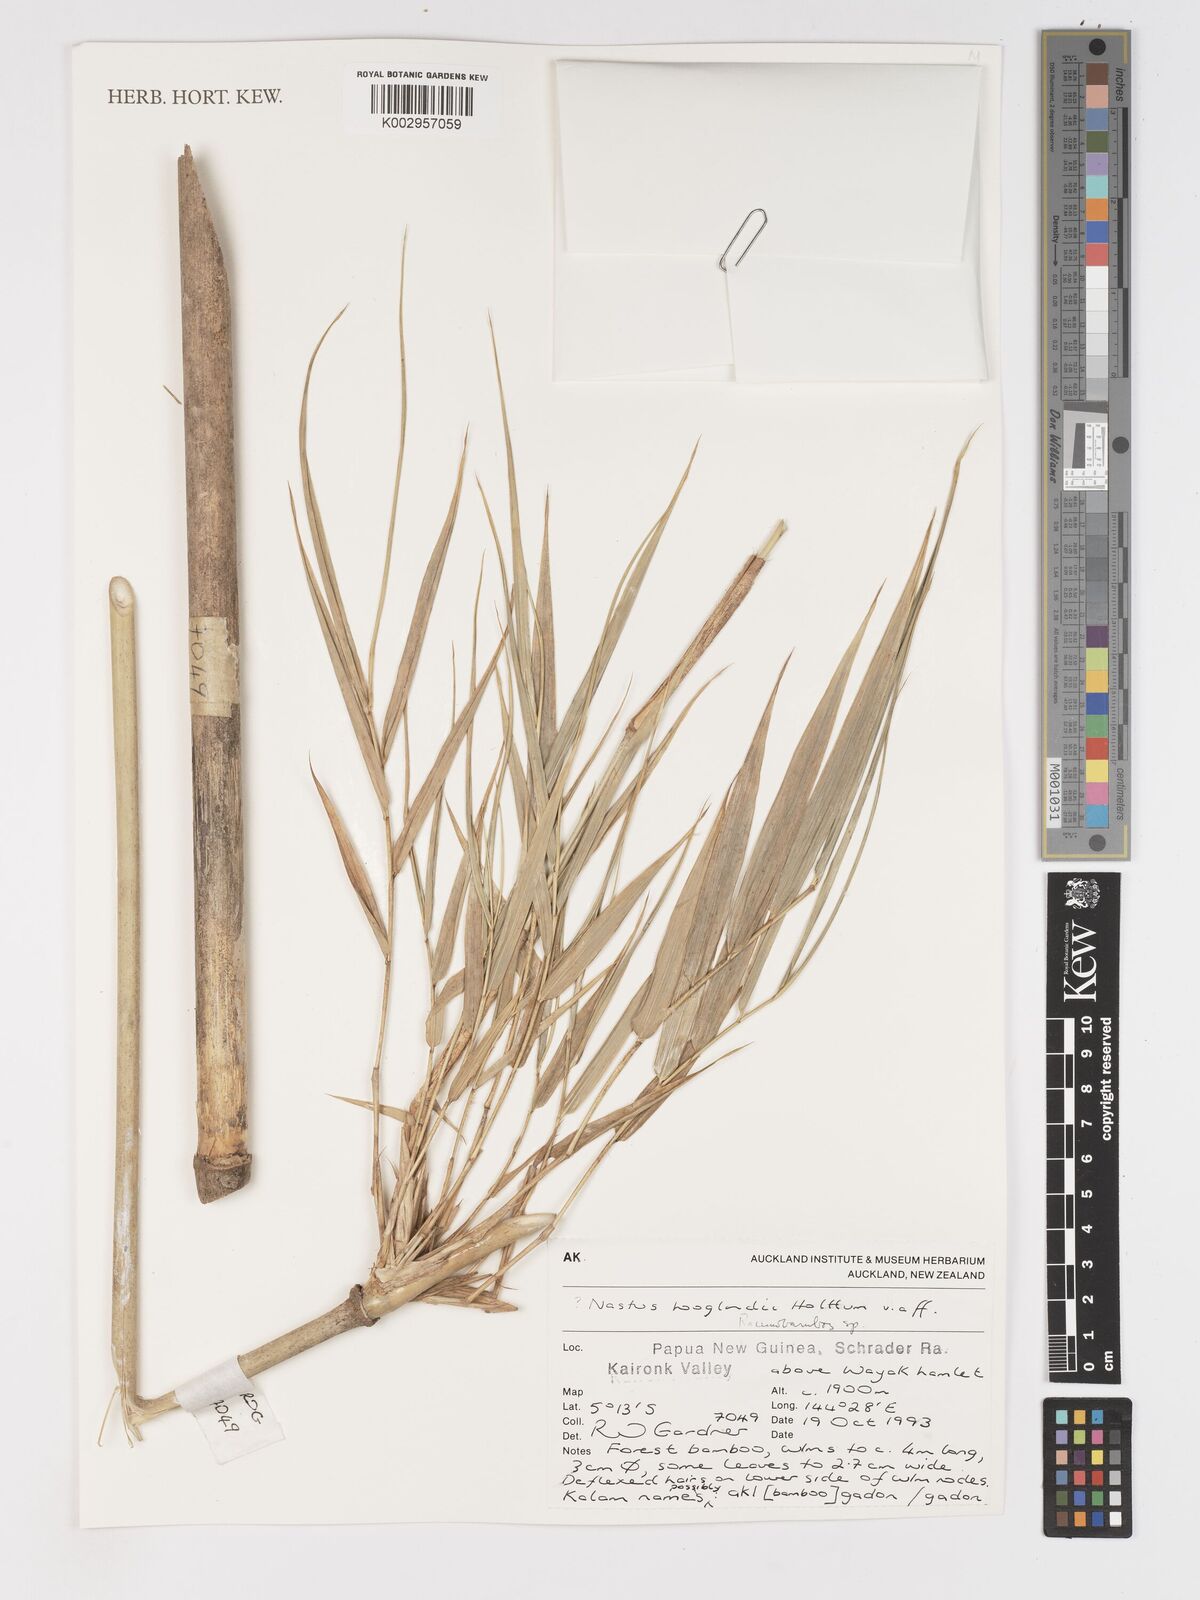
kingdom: Plantae
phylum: Tracheophyta
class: Liliopsida
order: Poales
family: Poaceae
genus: Racemobambos
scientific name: Racemobambos
